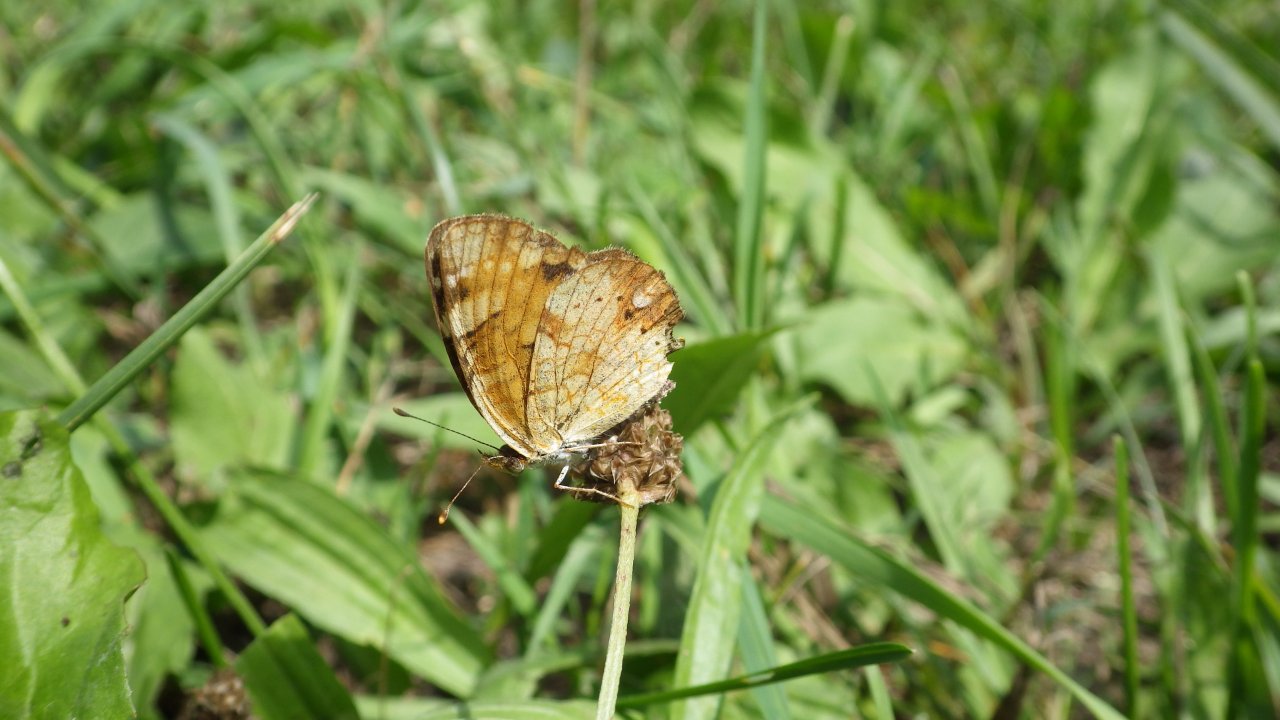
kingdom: Animalia
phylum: Arthropoda
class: Insecta
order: Lepidoptera
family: Nymphalidae
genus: Phyciodes
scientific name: Phyciodes tharos
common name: Northern Crescent
